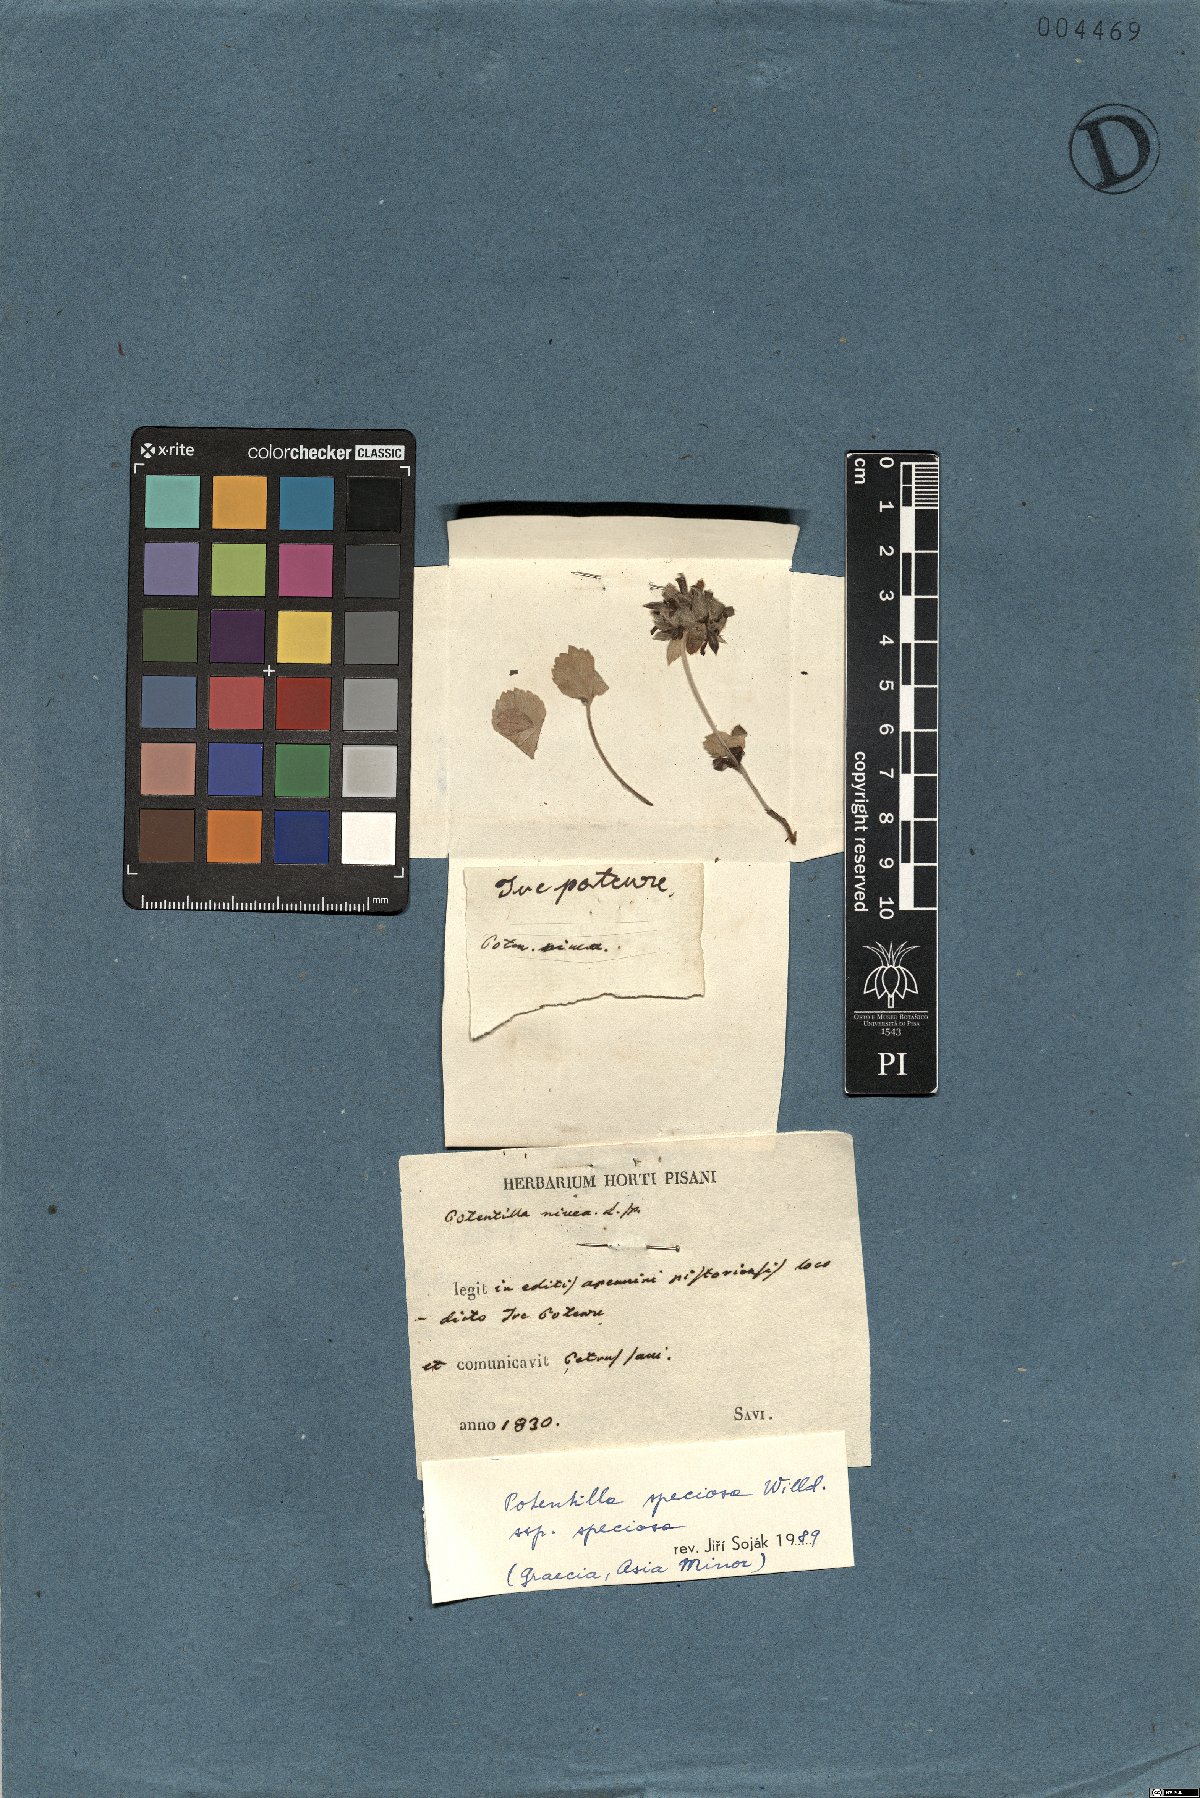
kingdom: Plantae
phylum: Tracheophyta
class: Magnoliopsida
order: Rosales
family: Rosaceae
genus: Potentilla
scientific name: Potentilla speciosa
